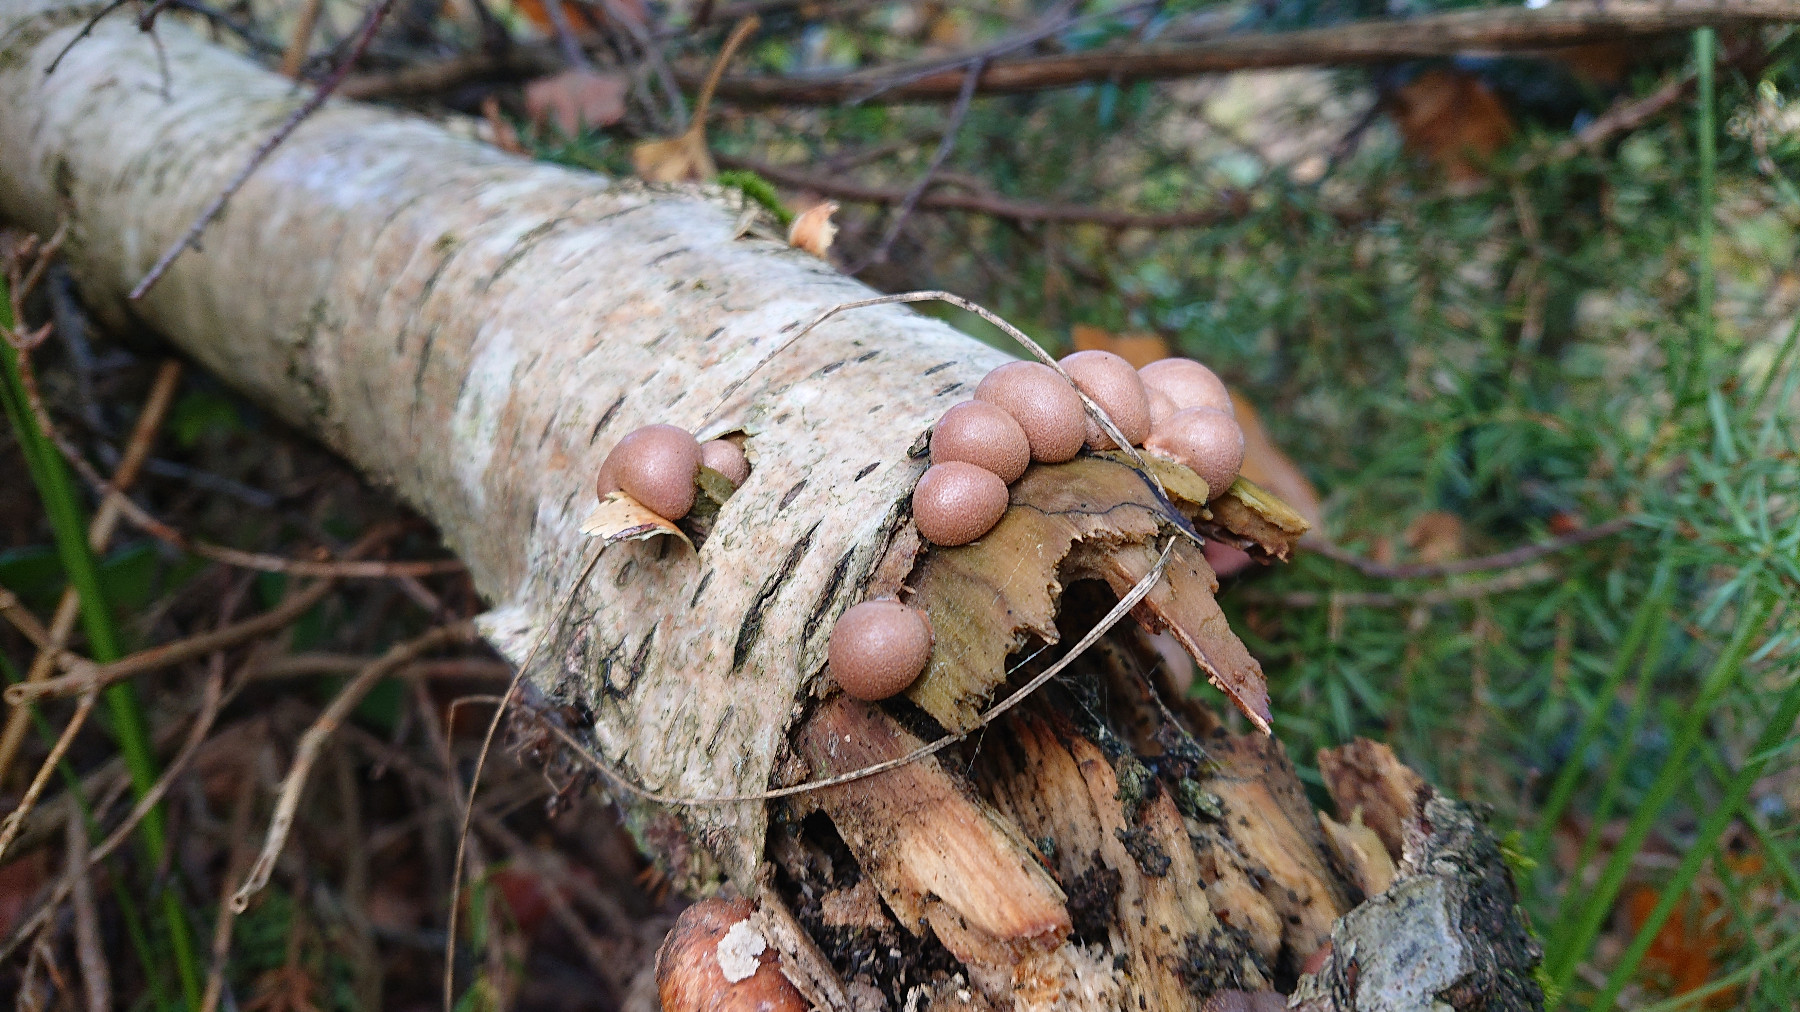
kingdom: Protozoa
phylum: Mycetozoa
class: Myxomycetes
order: Cribrariales
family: Tubiferaceae
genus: Lycogala
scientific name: Lycogala epidendrum
